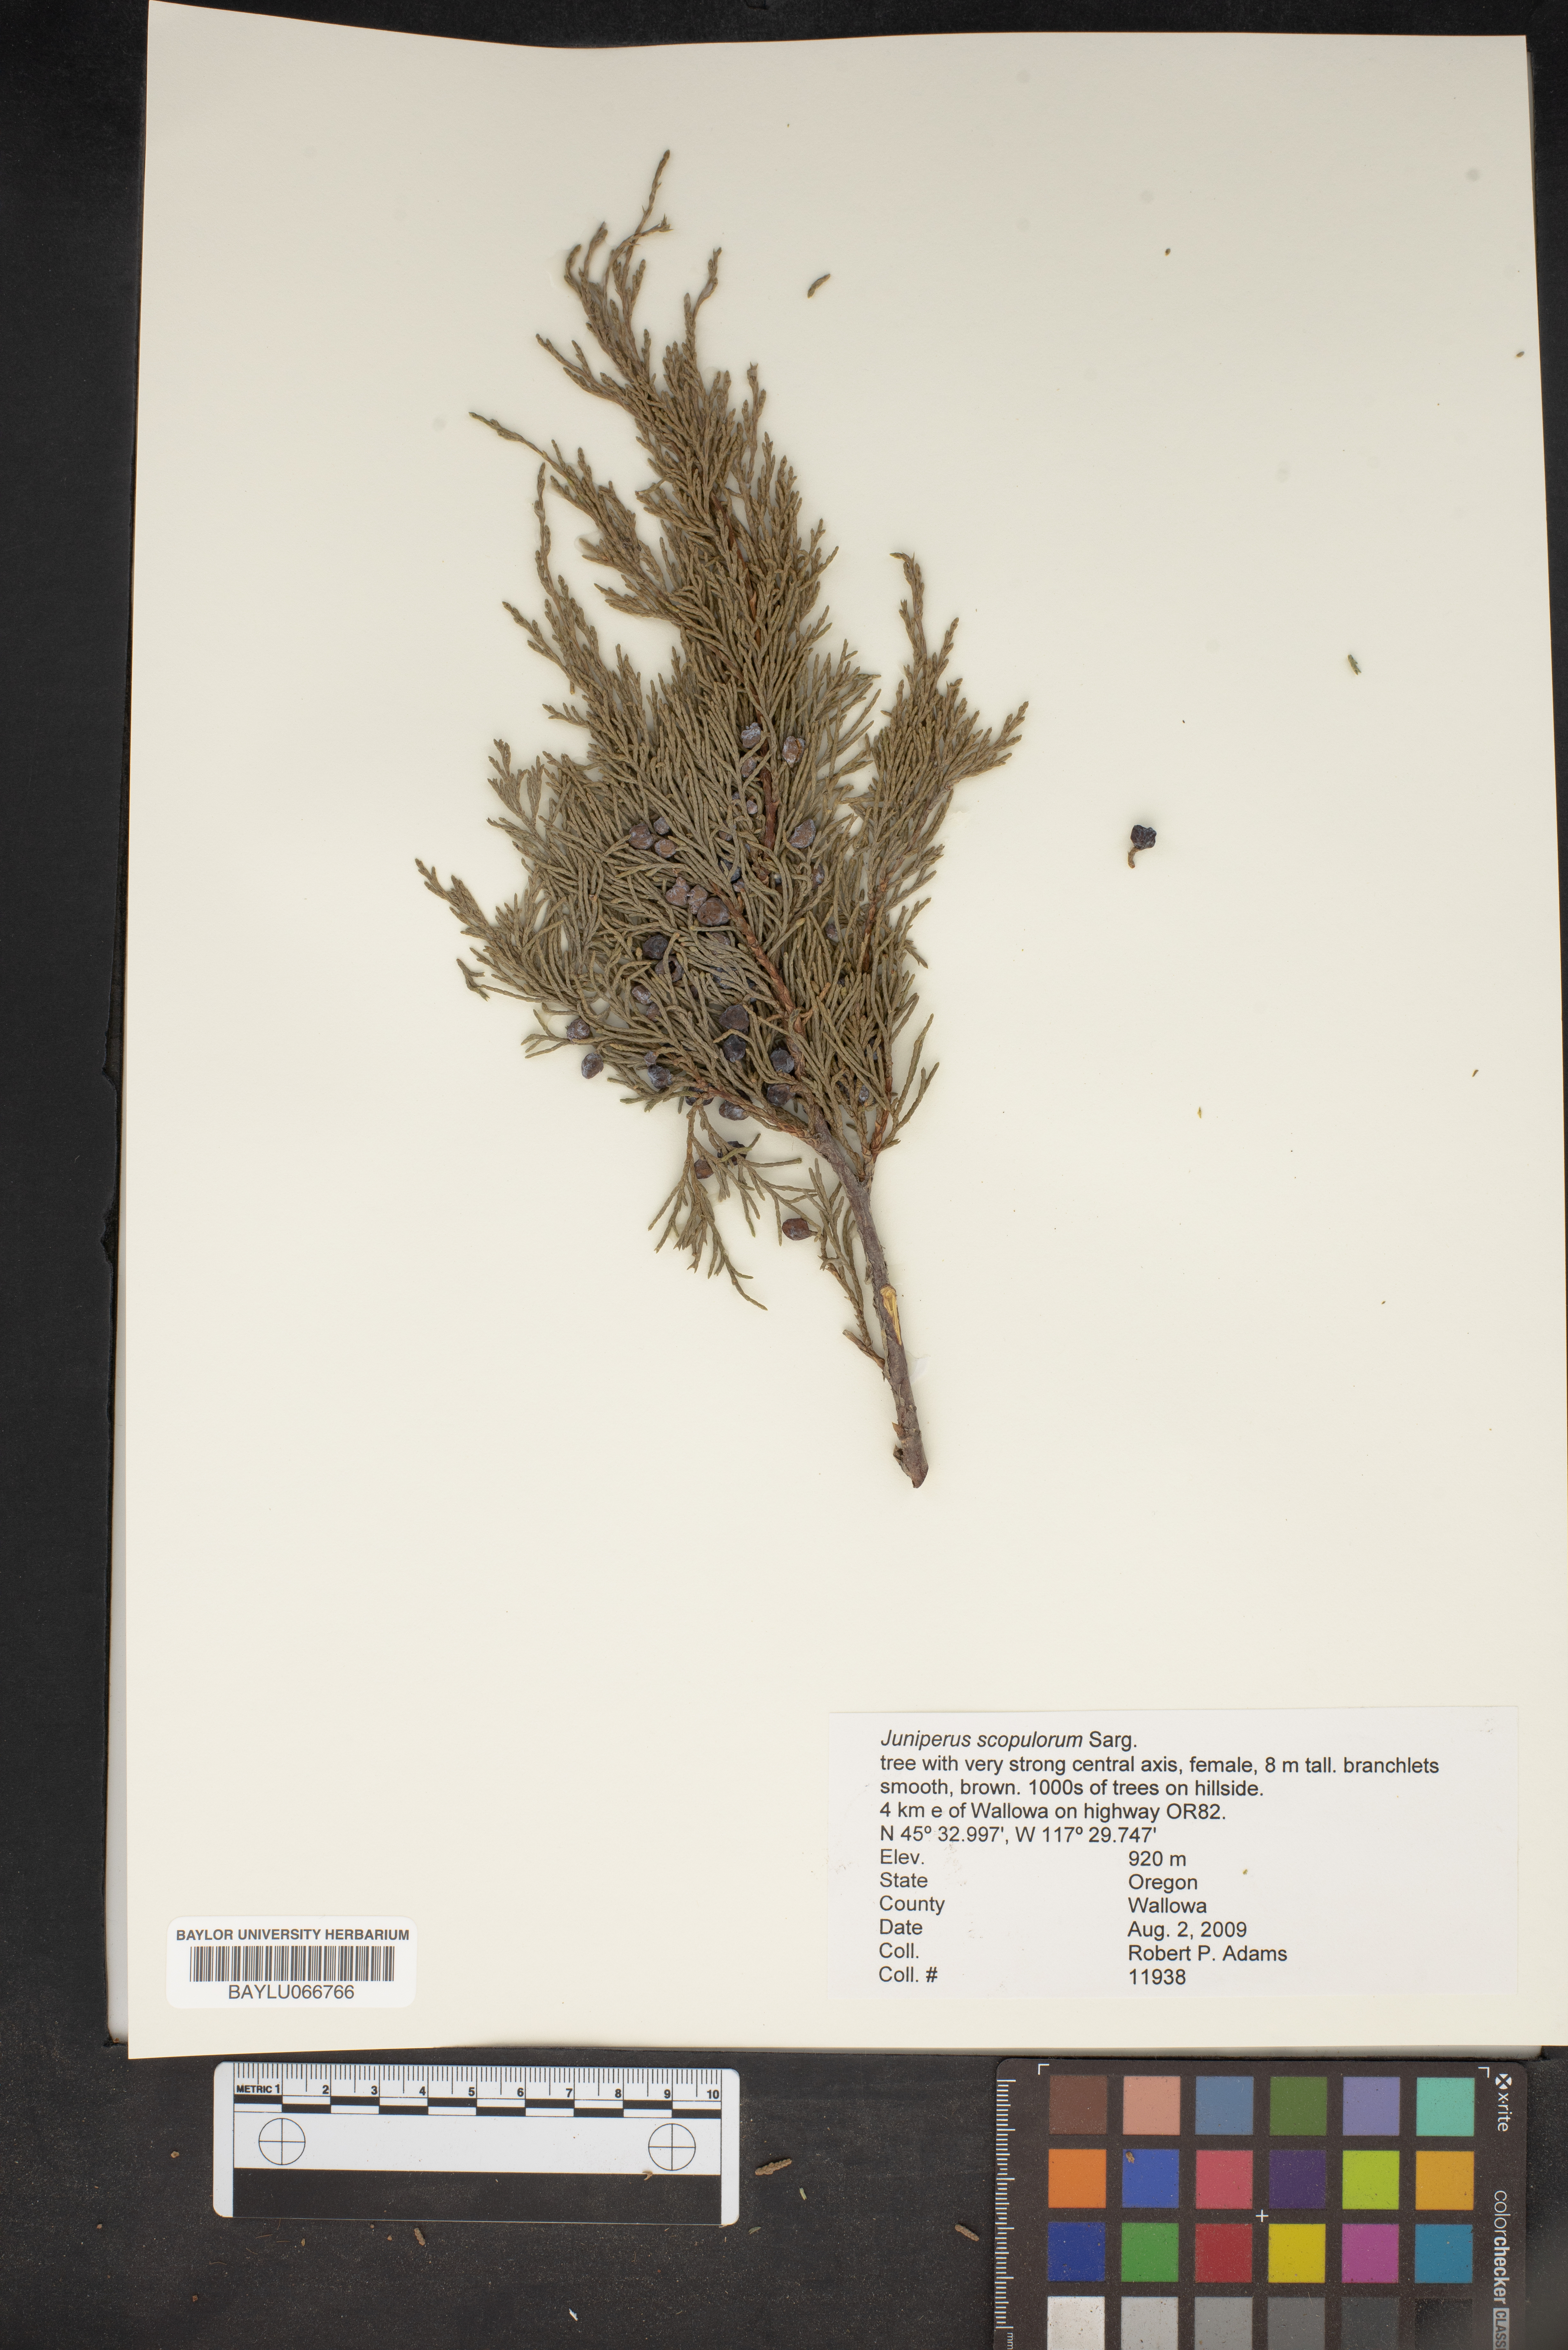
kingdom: Plantae
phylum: Tracheophyta
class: Pinopsida
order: Pinales
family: Cupressaceae
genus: Juniperus
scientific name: Juniperus scopulorum
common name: Rocky mountain juniper
